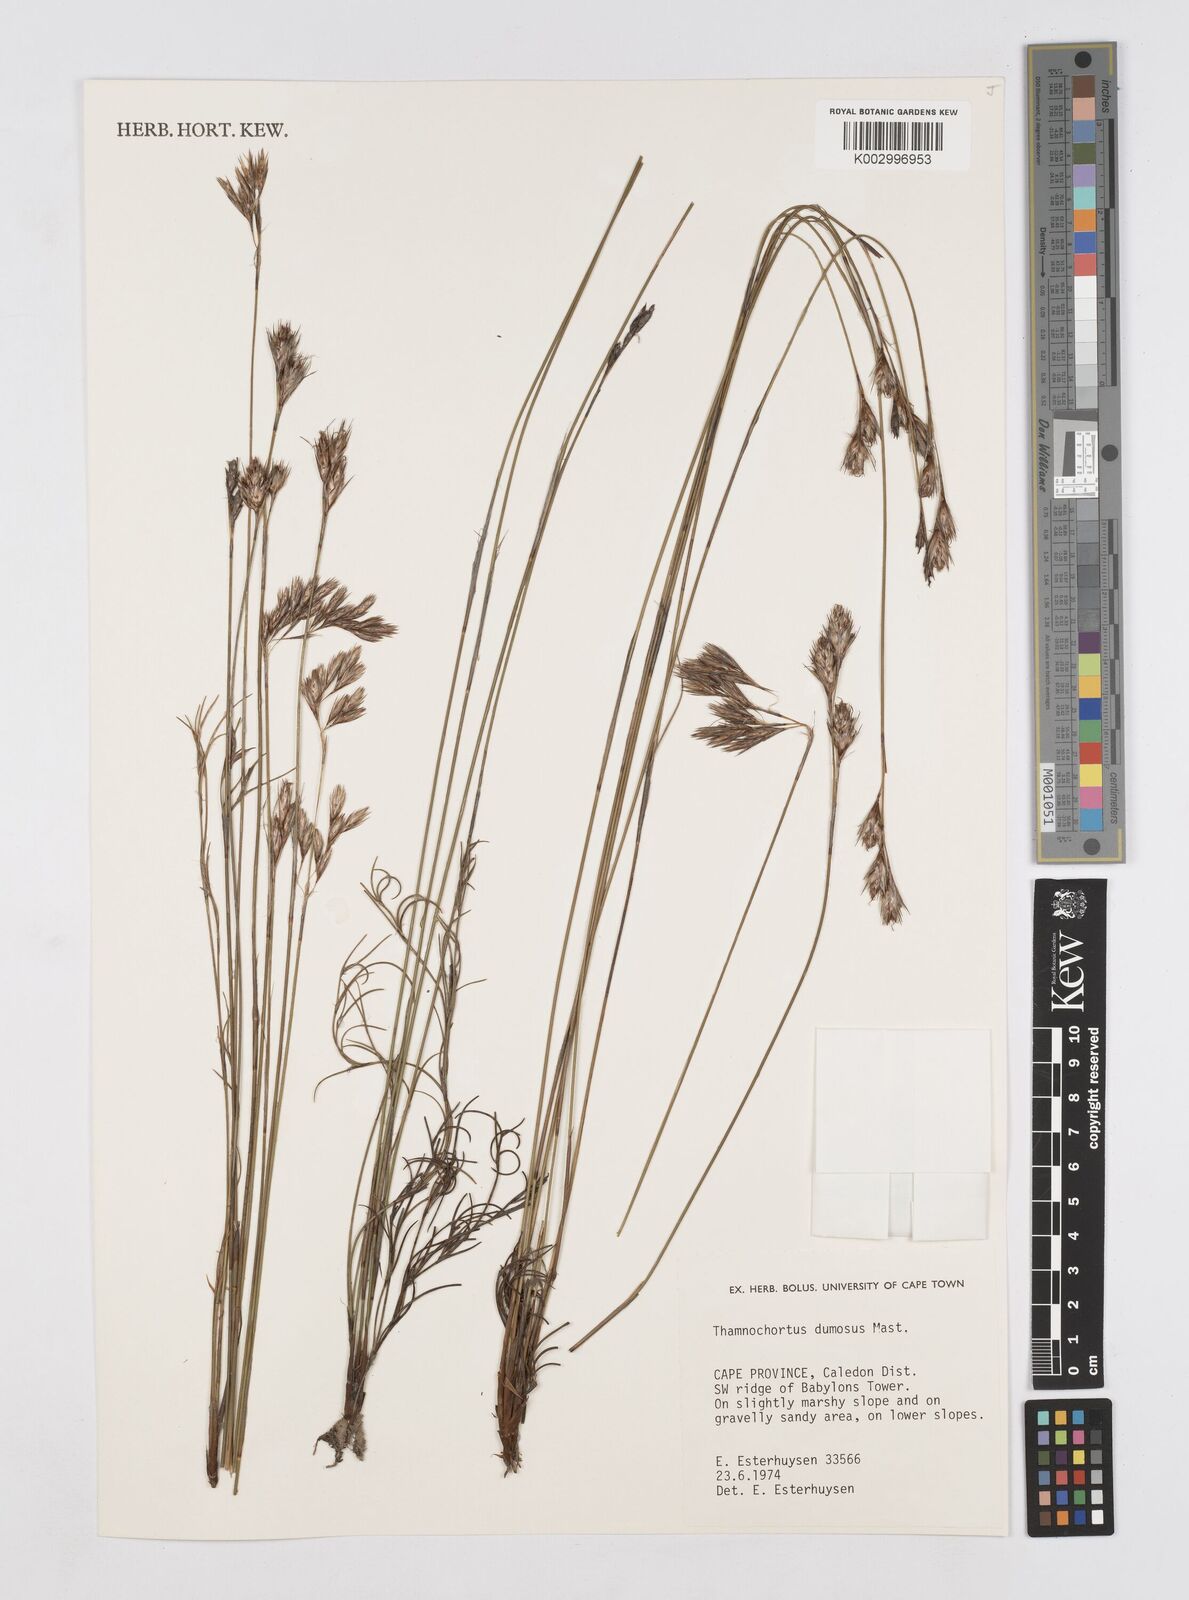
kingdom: Plantae
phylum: Tracheophyta
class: Liliopsida
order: Poales
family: Restionaceae
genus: Thamnochortus
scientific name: Thamnochortus dumosus
